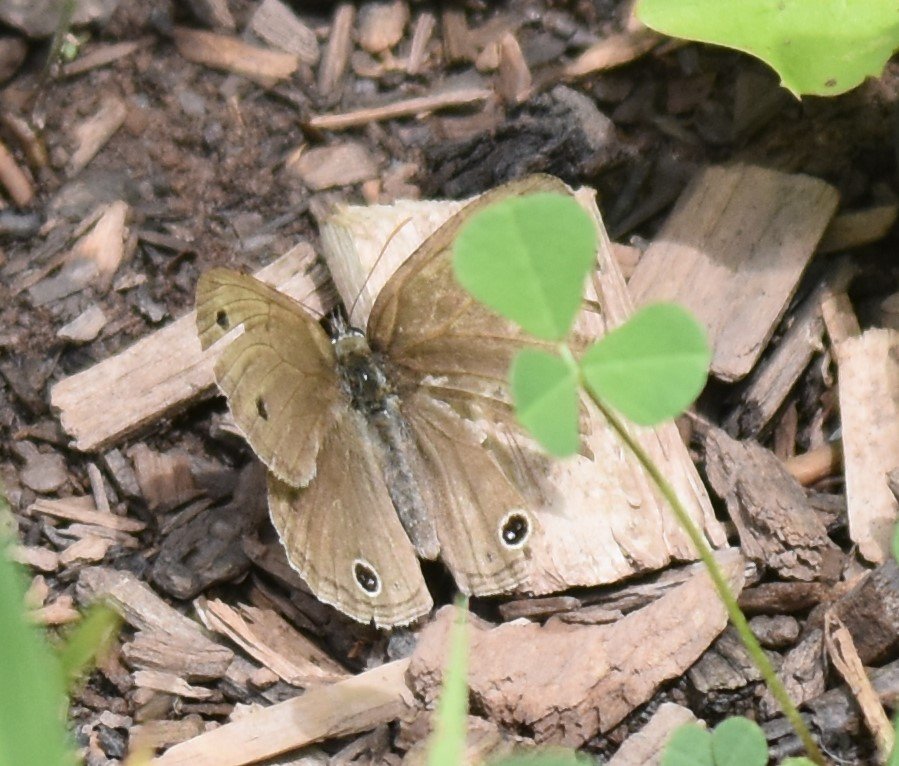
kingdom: Animalia
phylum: Arthropoda
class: Insecta
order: Lepidoptera
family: Nymphalidae
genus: Euptychia
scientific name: Euptychia cymela
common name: Little Wood Satyr
